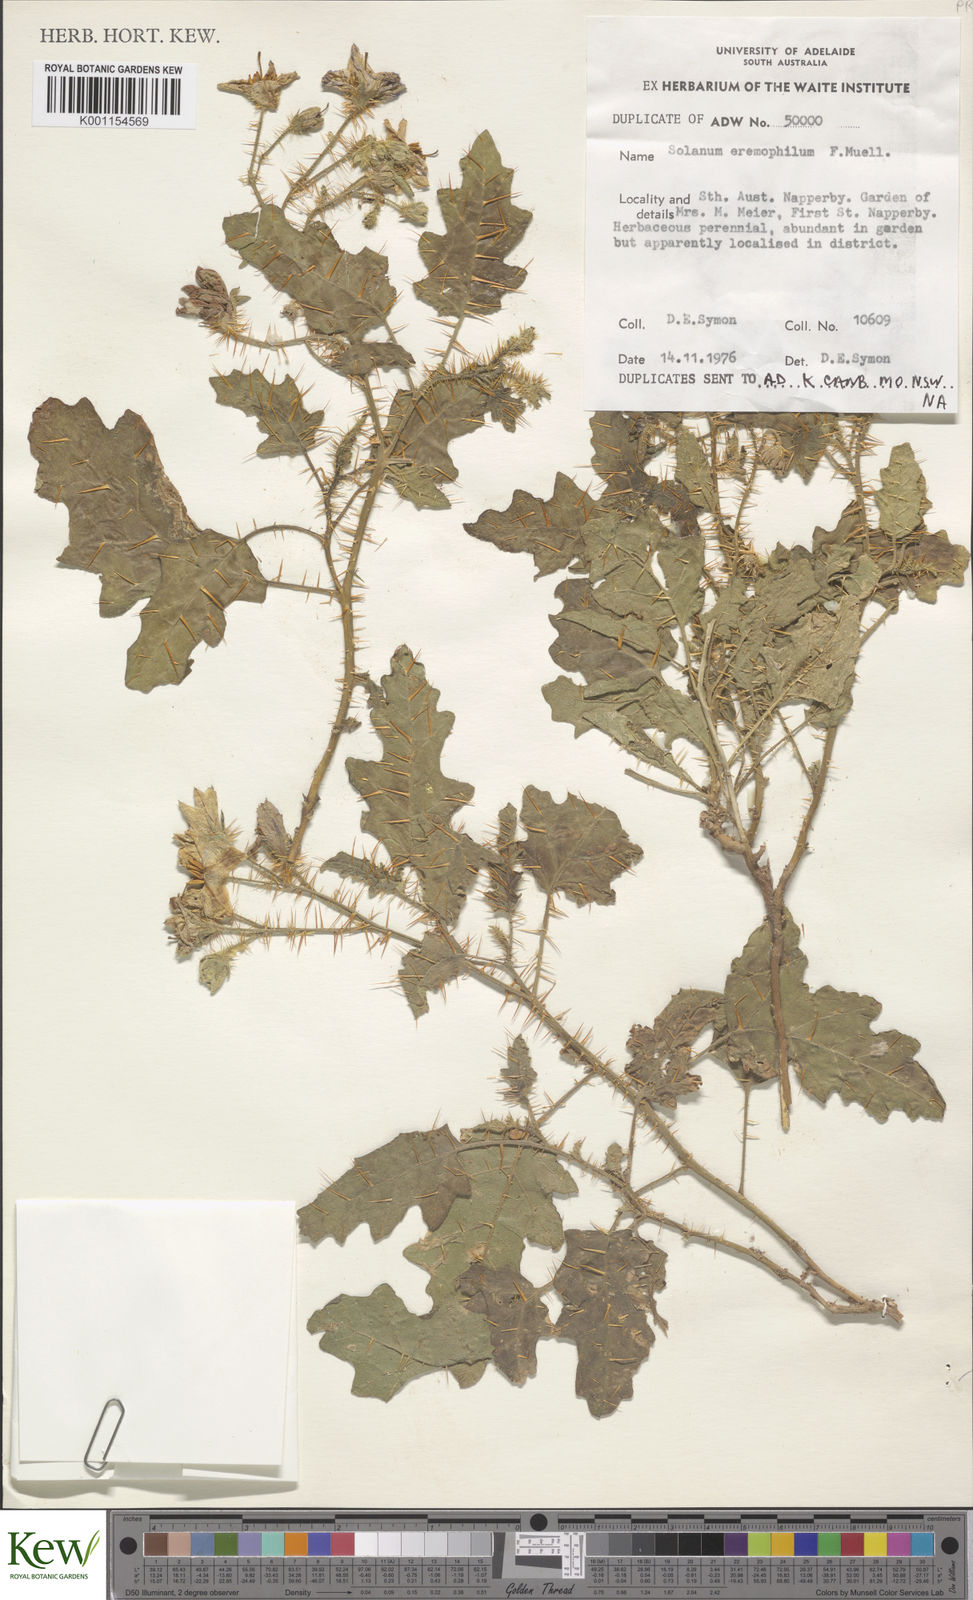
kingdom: Plantae
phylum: Tracheophyta
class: Magnoliopsida
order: Solanales
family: Solanaceae
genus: Solanum
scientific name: Solanum eremophilum
